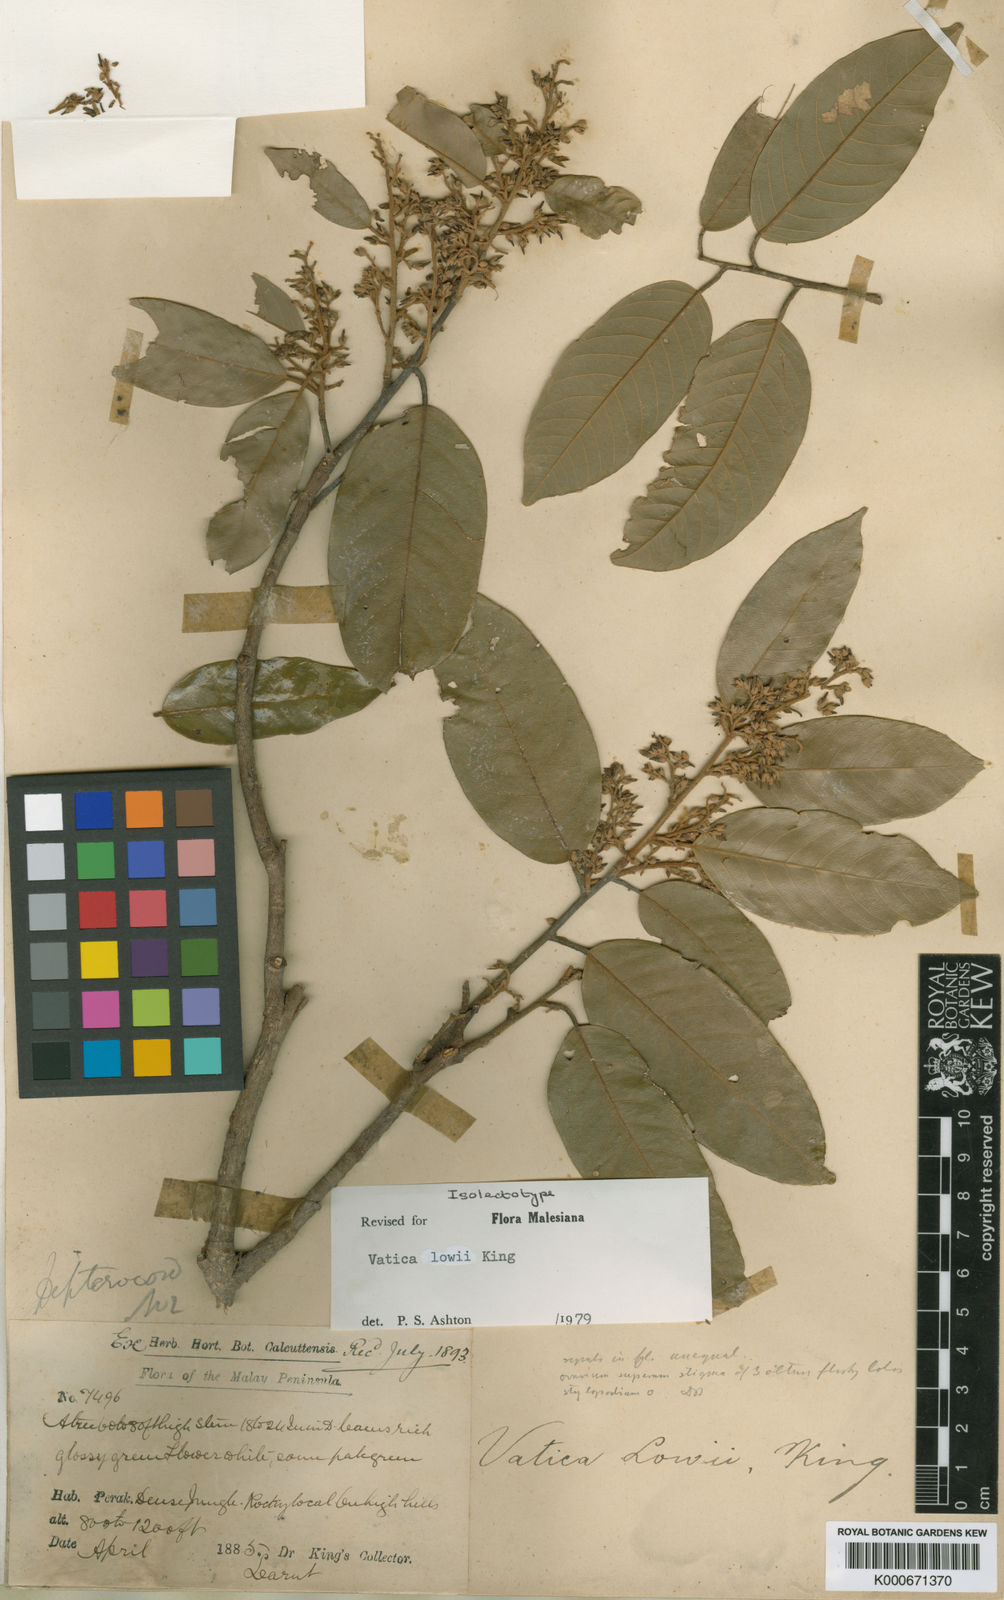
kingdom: Plantae
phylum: Tracheophyta
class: Magnoliopsida
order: Malvales
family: Dipterocarpaceae
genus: Vatica
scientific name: Vatica lowii
